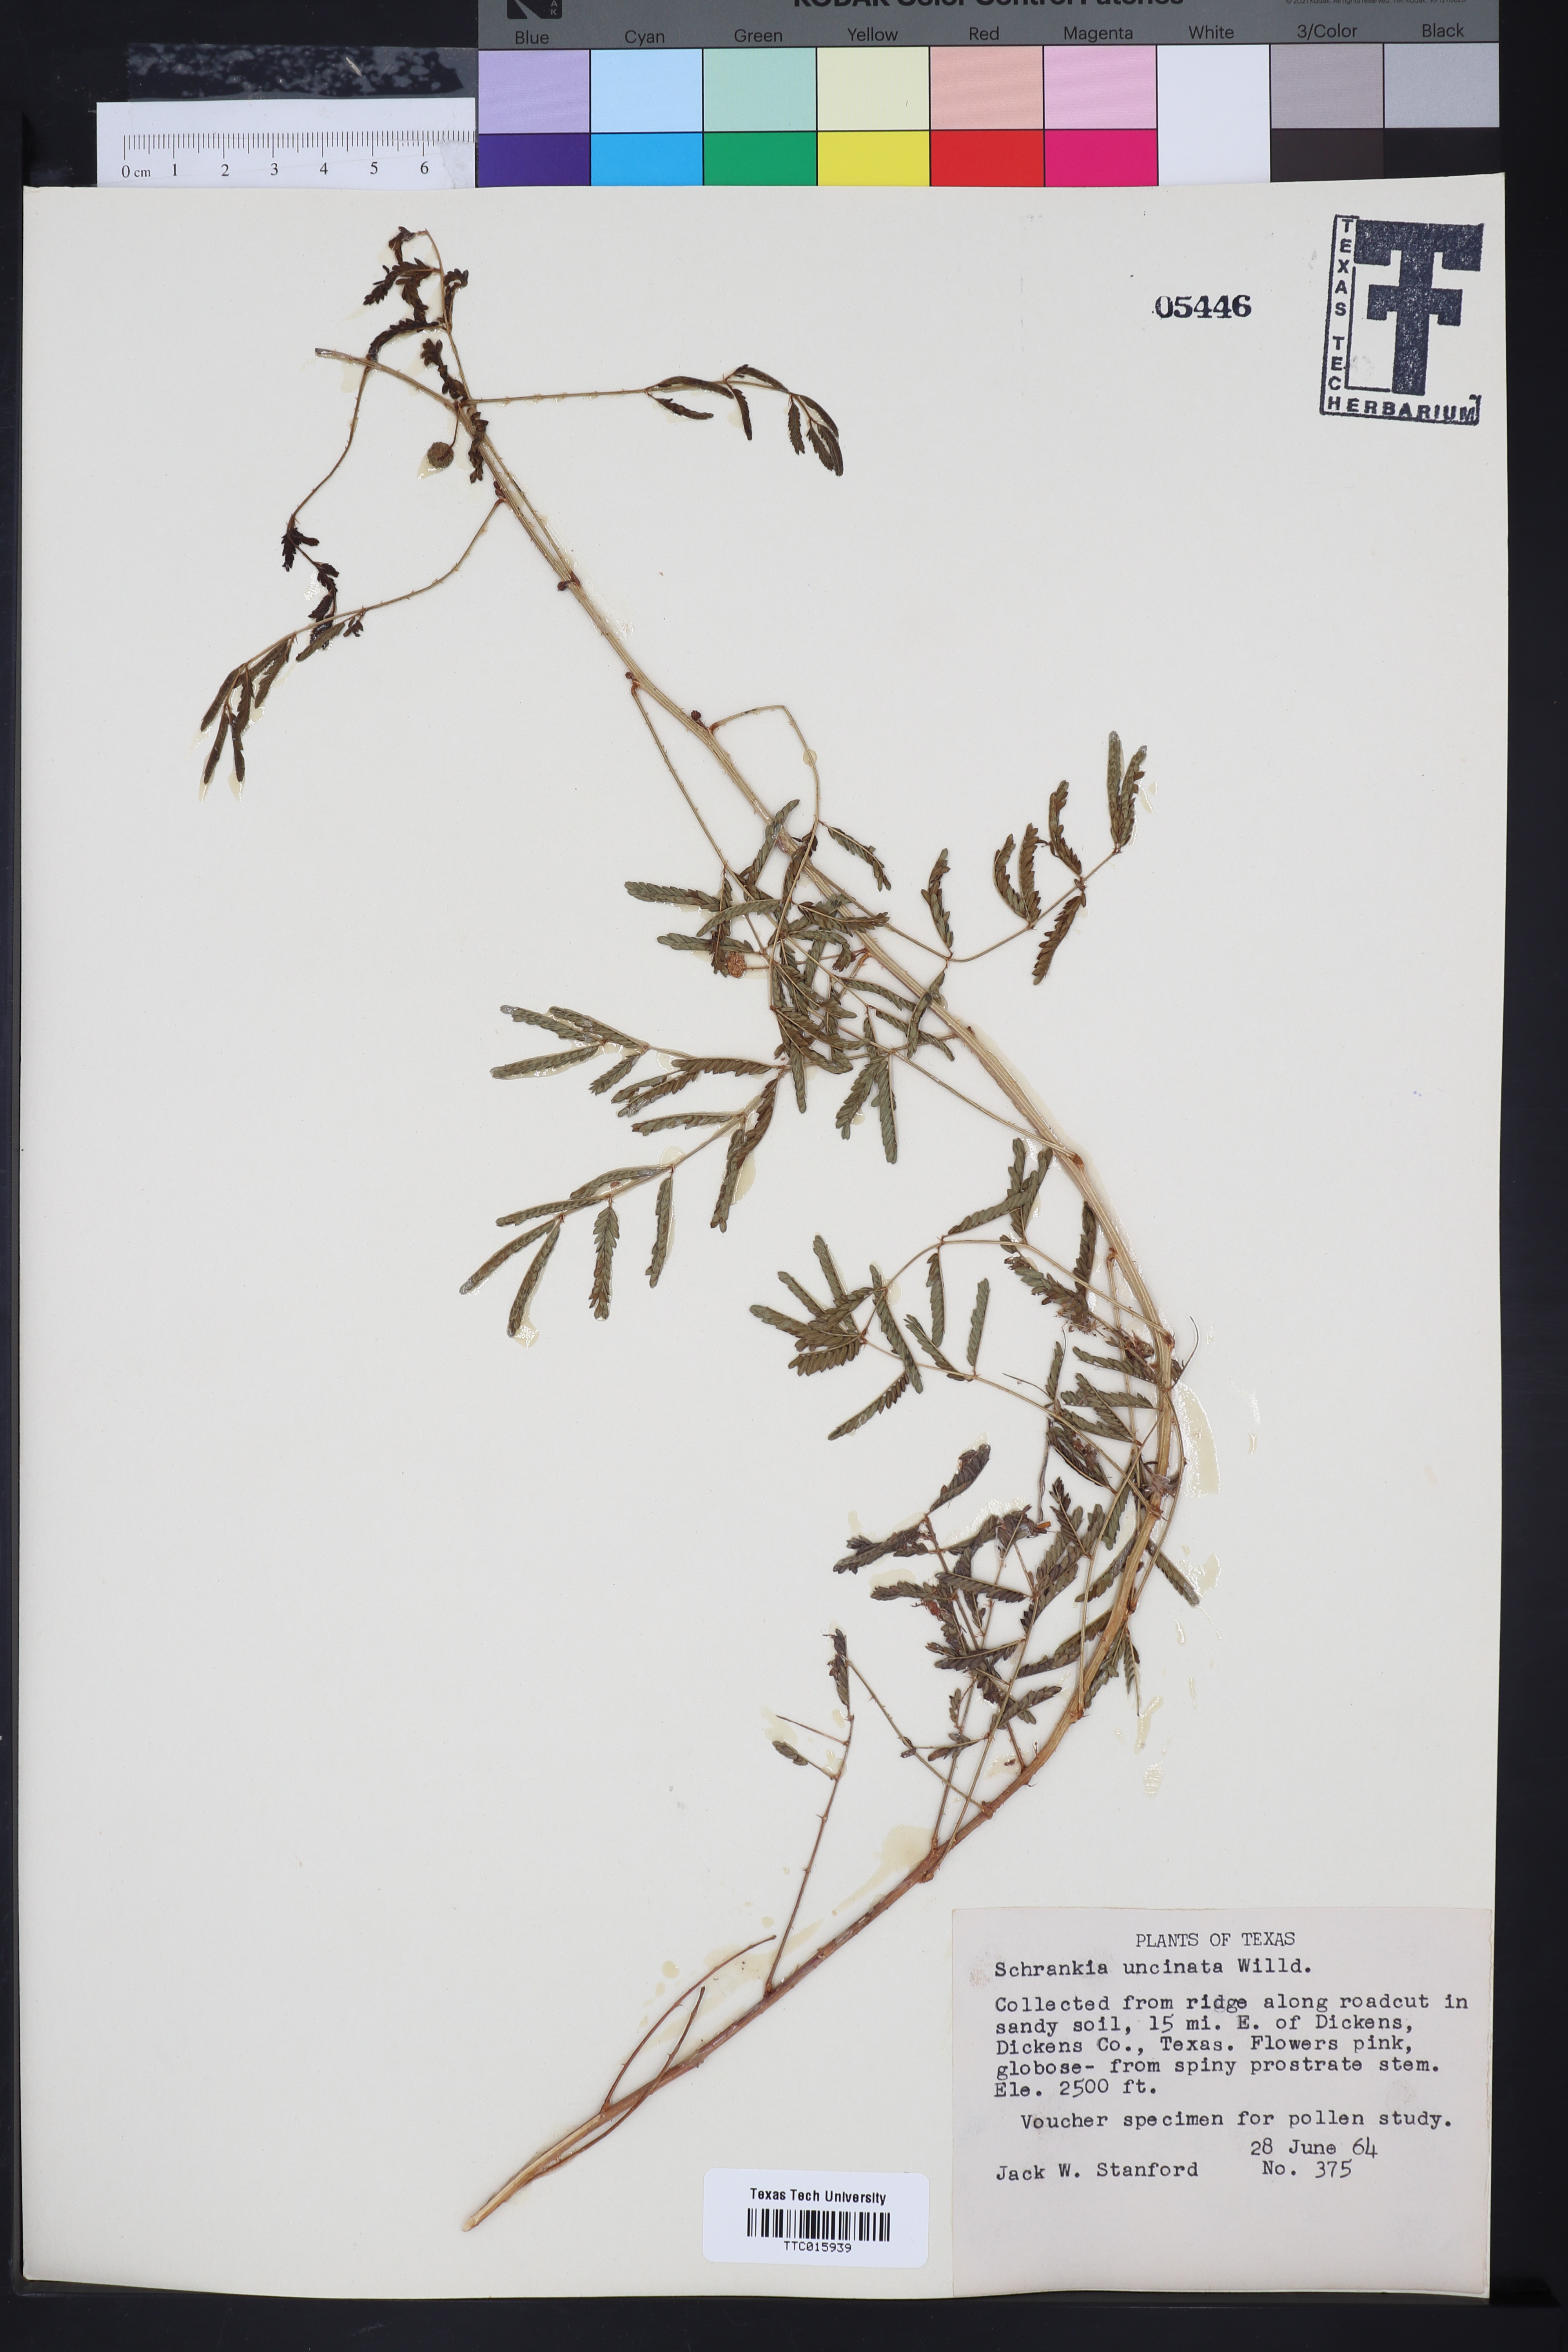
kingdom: Plantae
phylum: Tracheophyta
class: Magnoliopsida
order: Fabales
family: Fabaceae
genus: Mimosa
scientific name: Mimosa quadrivalvis
